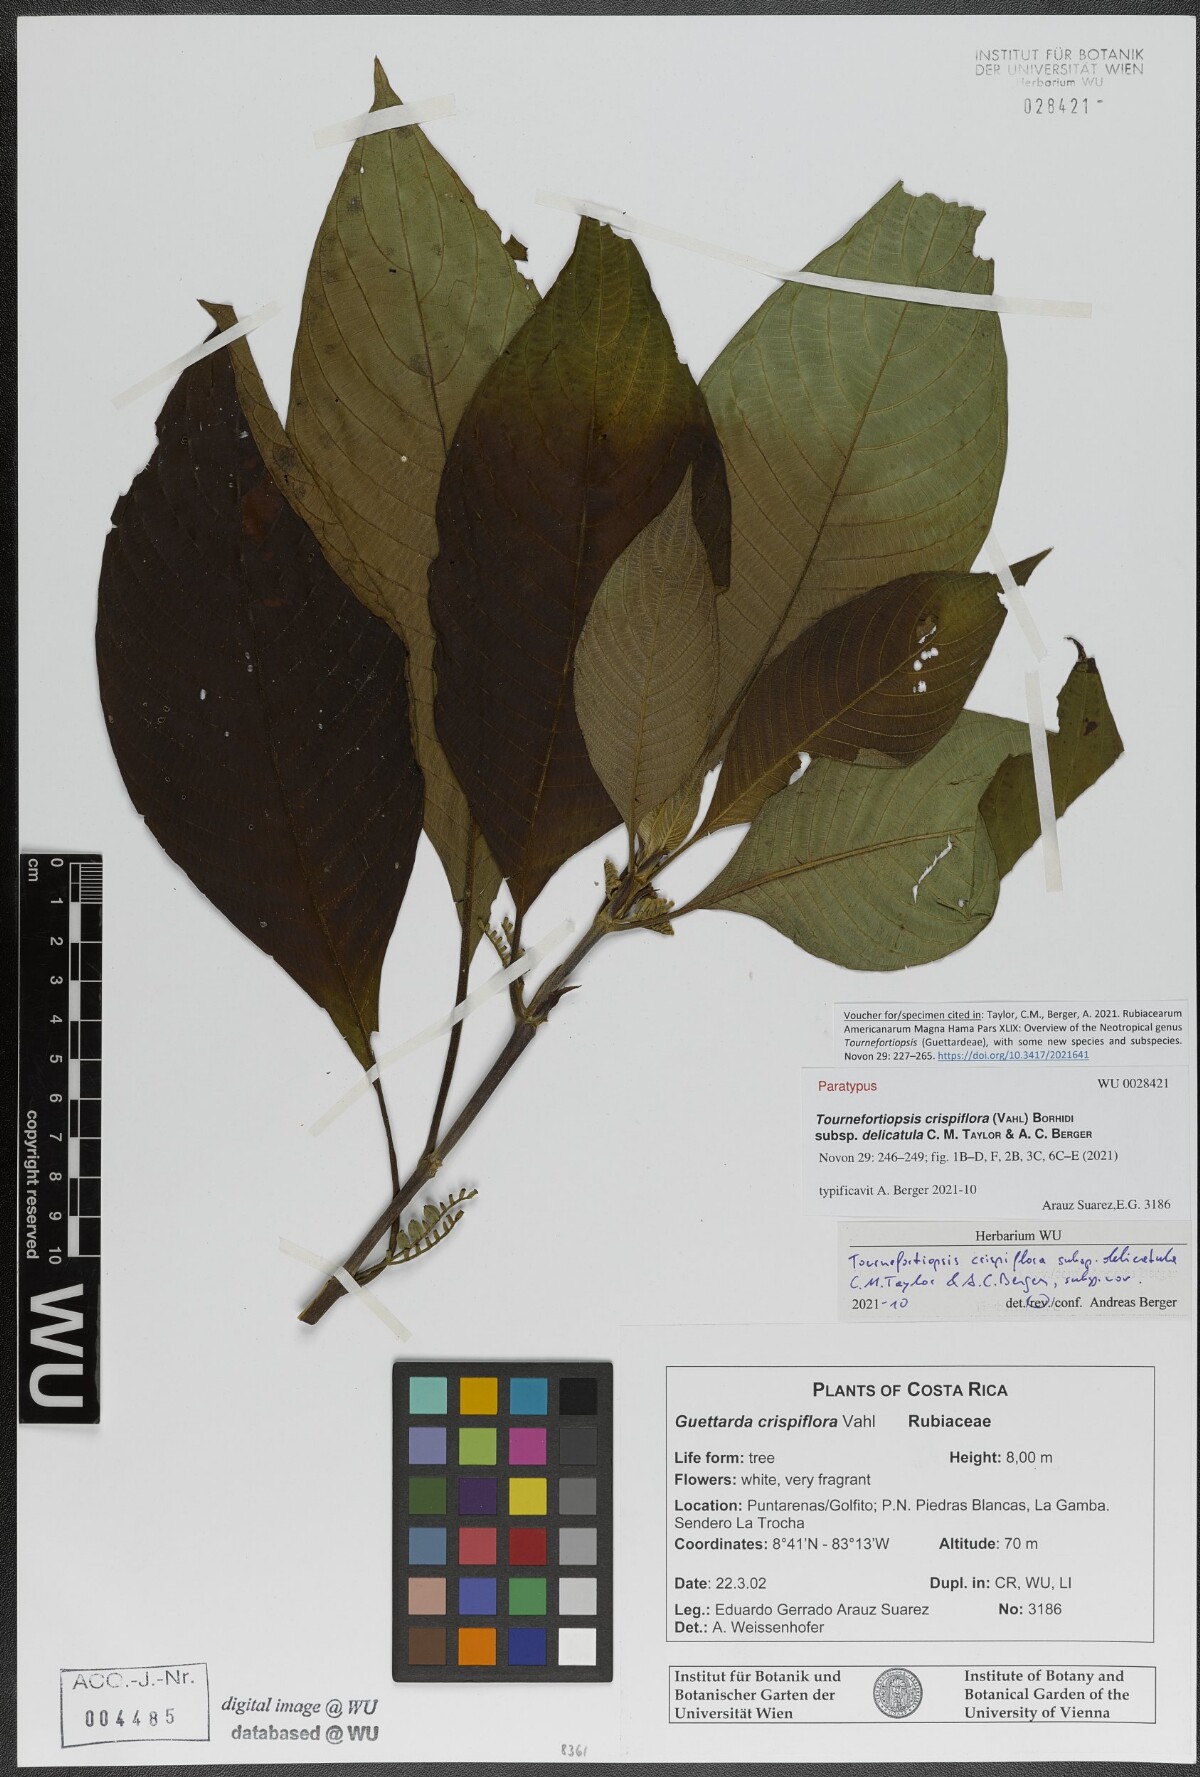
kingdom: Plantae
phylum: Tracheophyta
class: Magnoliopsida
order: Gentianales
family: Rubiaceae
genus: Tournefortiopsis
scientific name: Tournefortiopsis crispiflora
